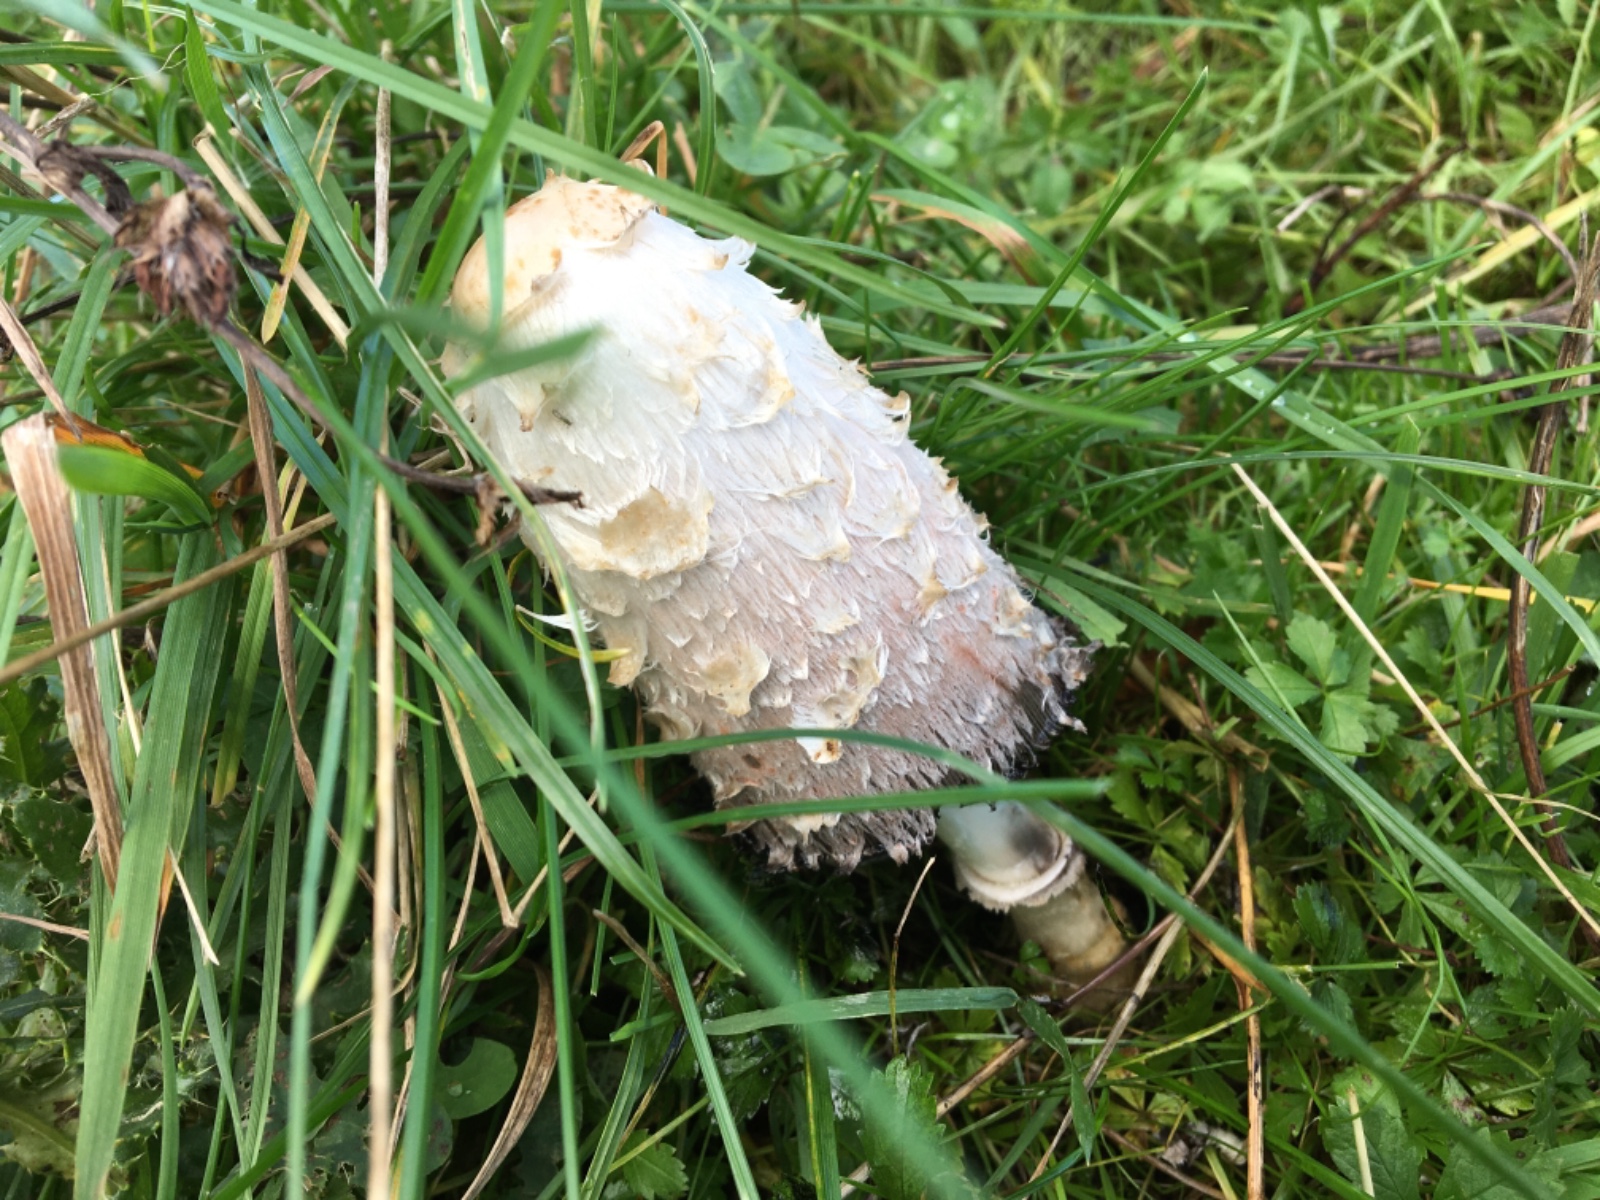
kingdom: Fungi
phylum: Basidiomycota
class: Agaricomycetes
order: Agaricales
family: Agaricaceae
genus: Coprinus
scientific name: Coprinus comatus
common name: stor parykhat
